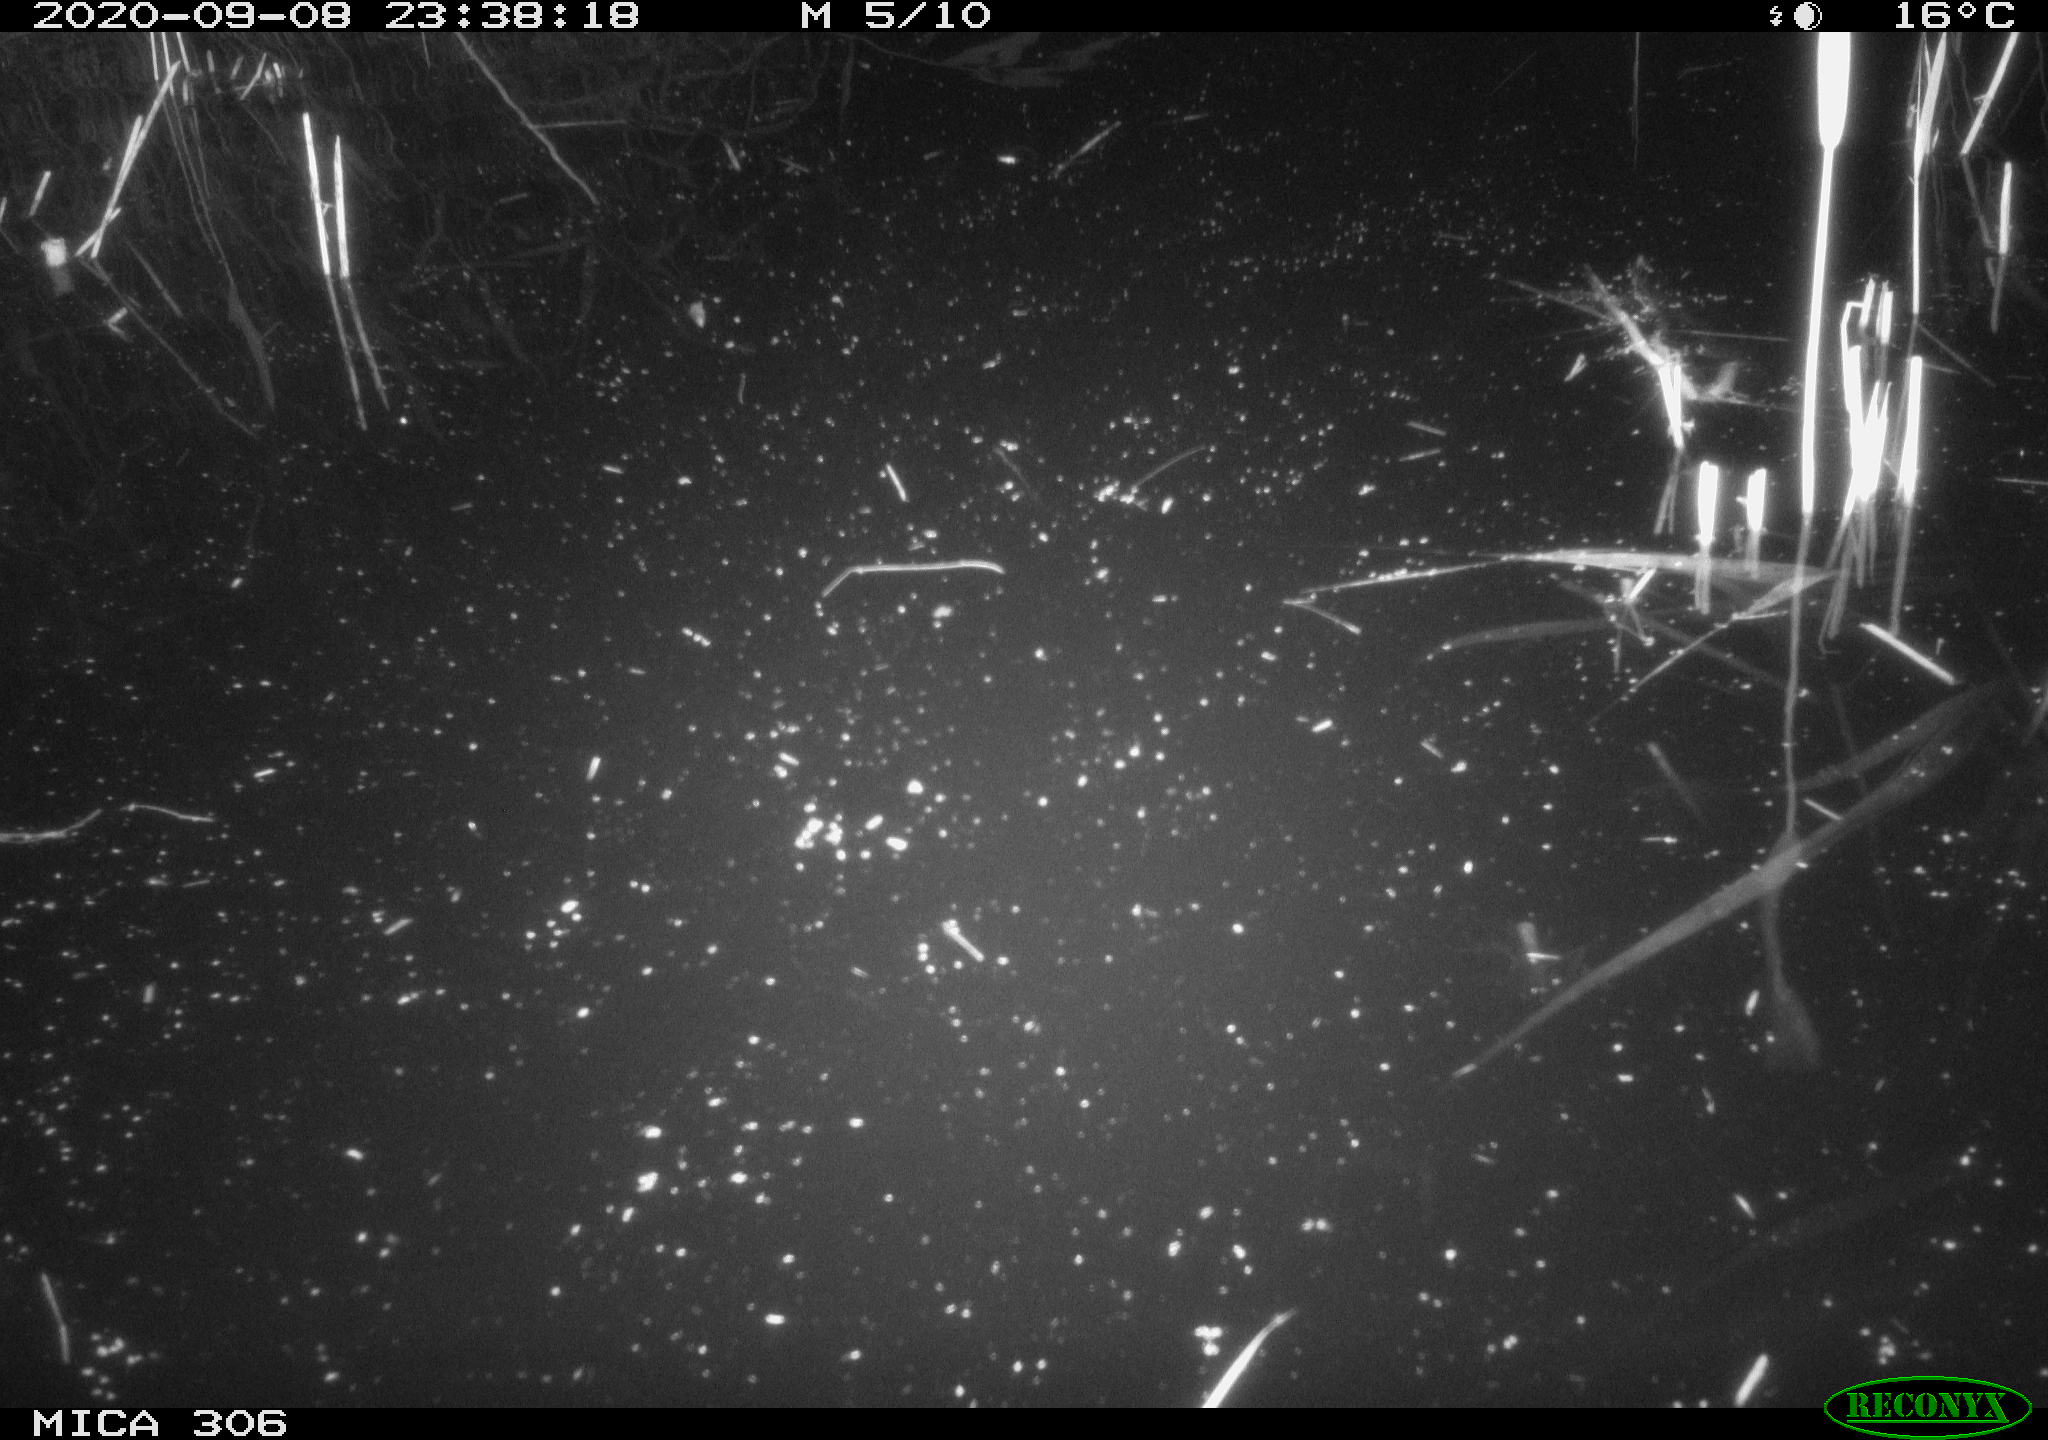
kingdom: Animalia
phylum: Chordata
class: Mammalia
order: Rodentia
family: Muridae
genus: Rattus
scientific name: Rattus norvegicus
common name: Brown rat
